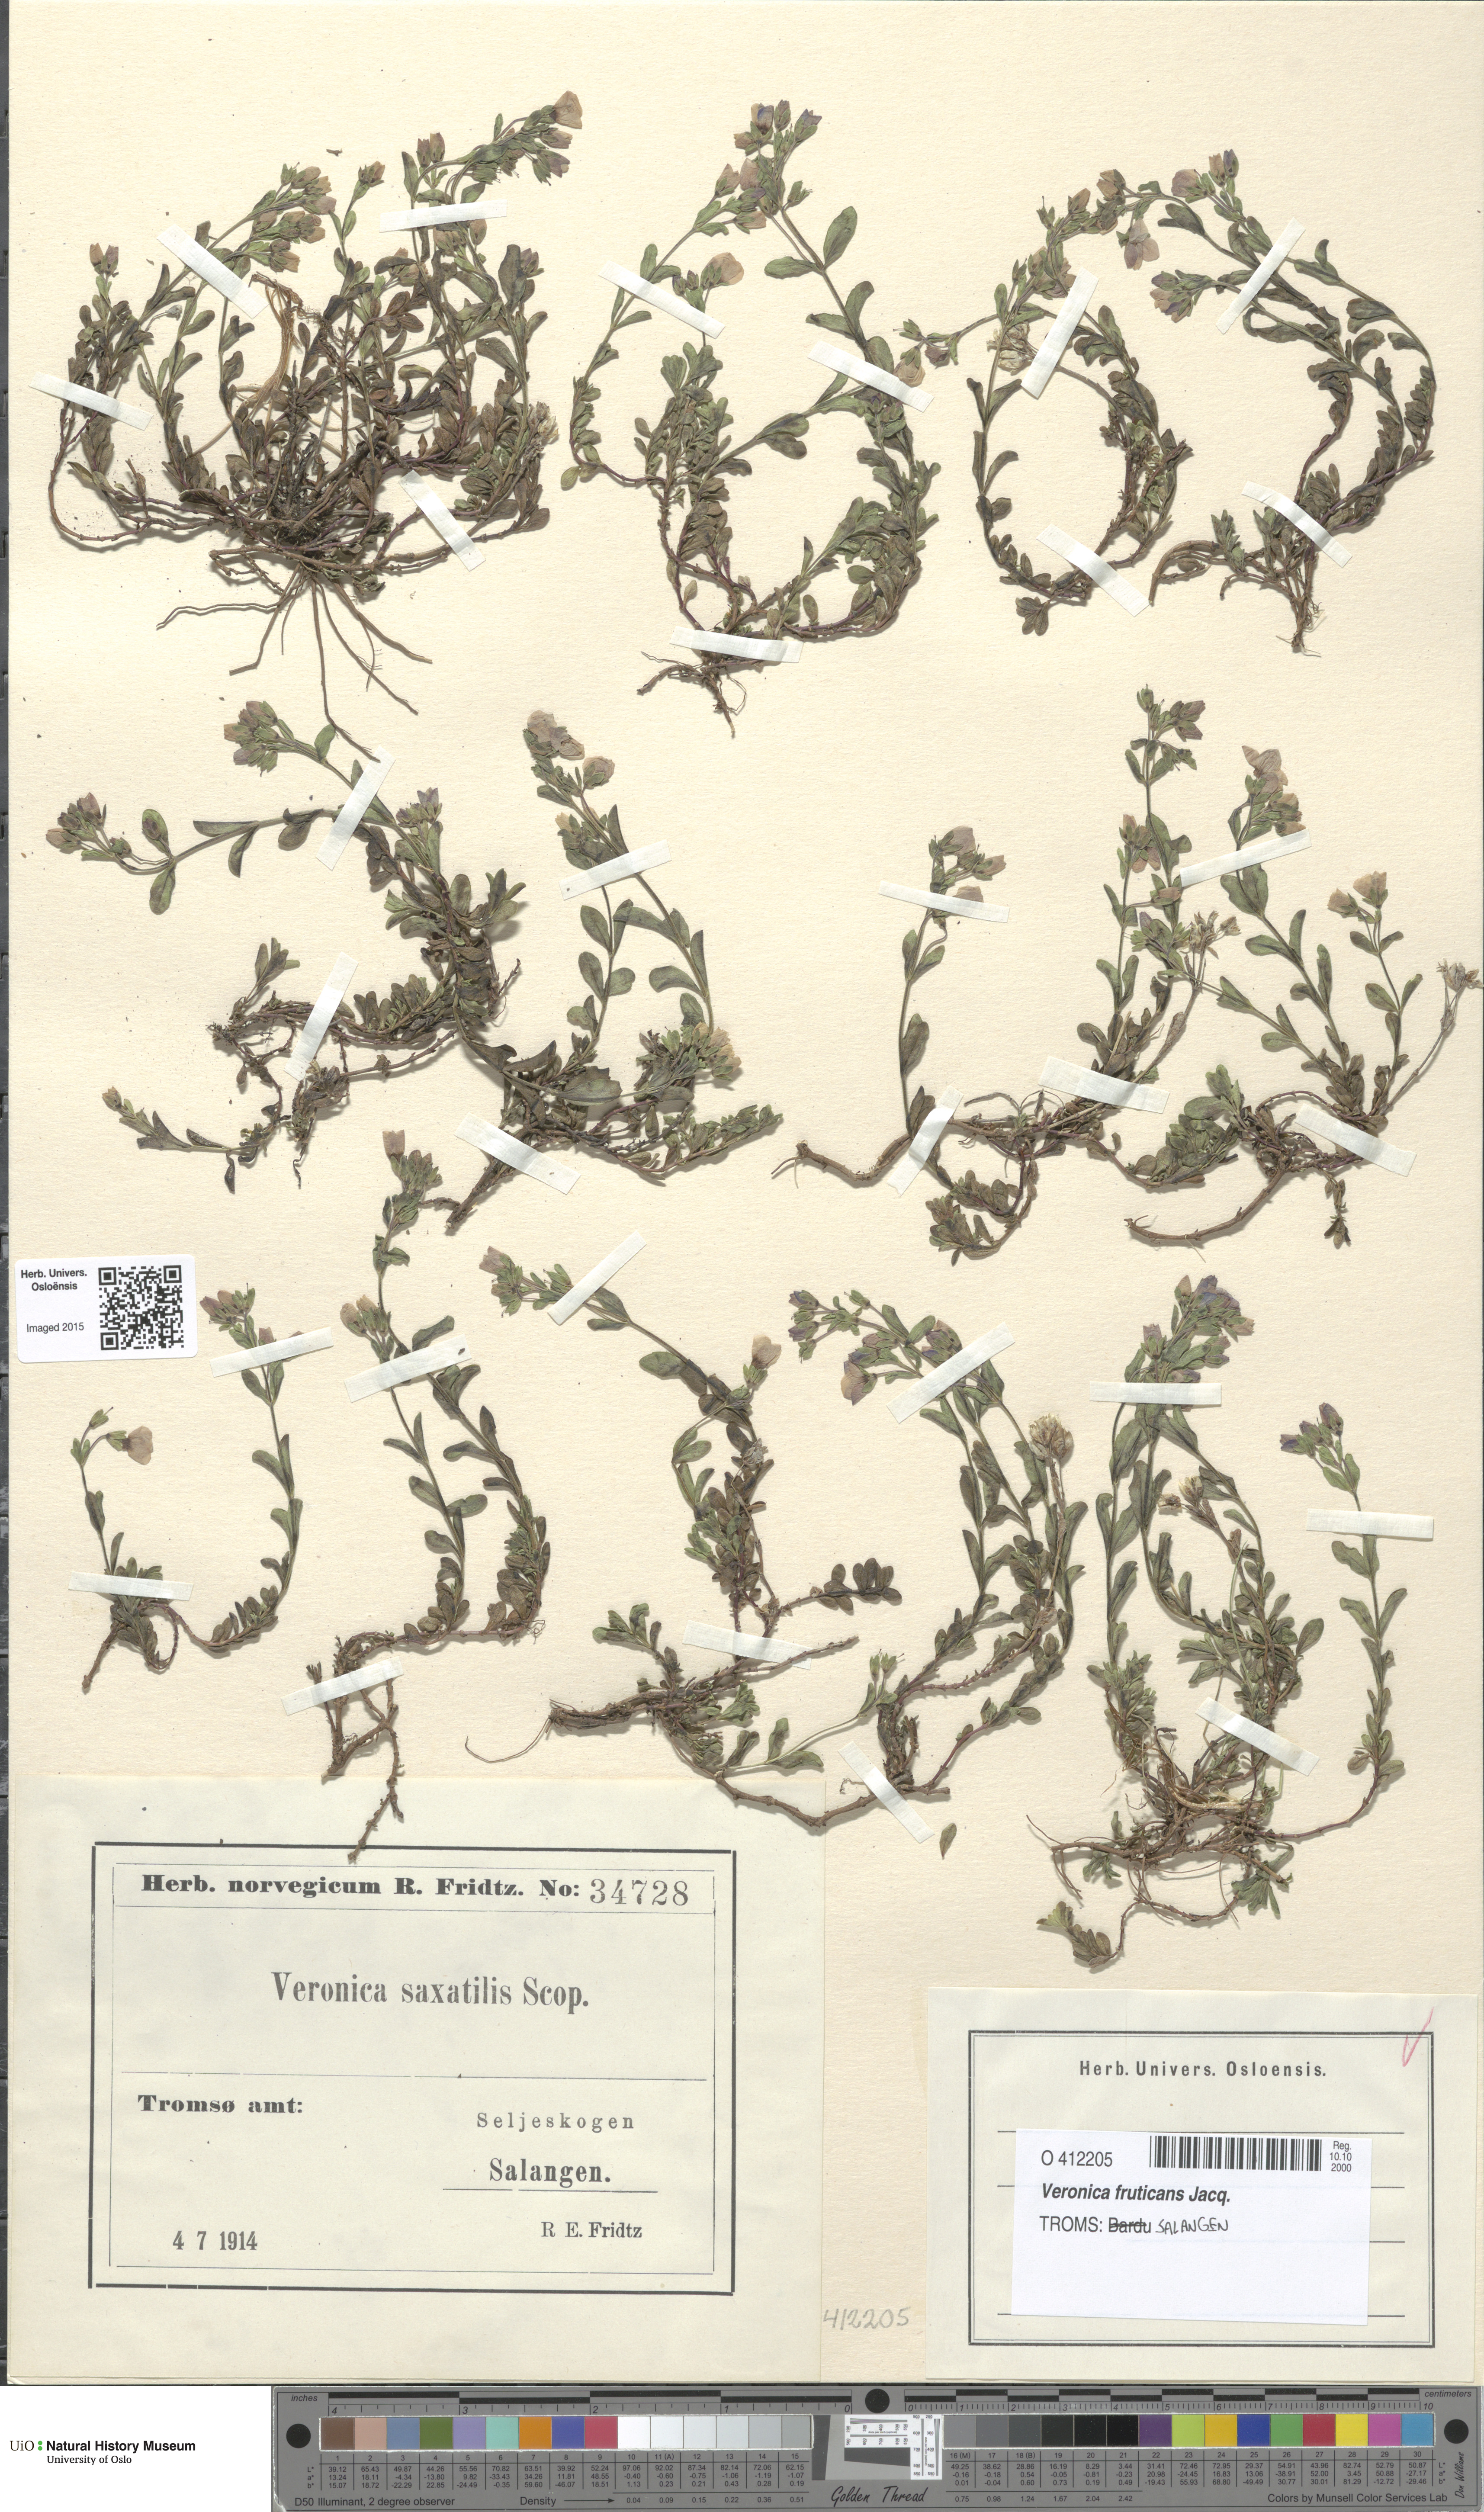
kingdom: Plantae
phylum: Tracheophyta
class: Magnoliopsida
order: Lamiales
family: Plantaginaceae
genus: Veronica
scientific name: Veronica fruticans
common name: Rock speedwell
